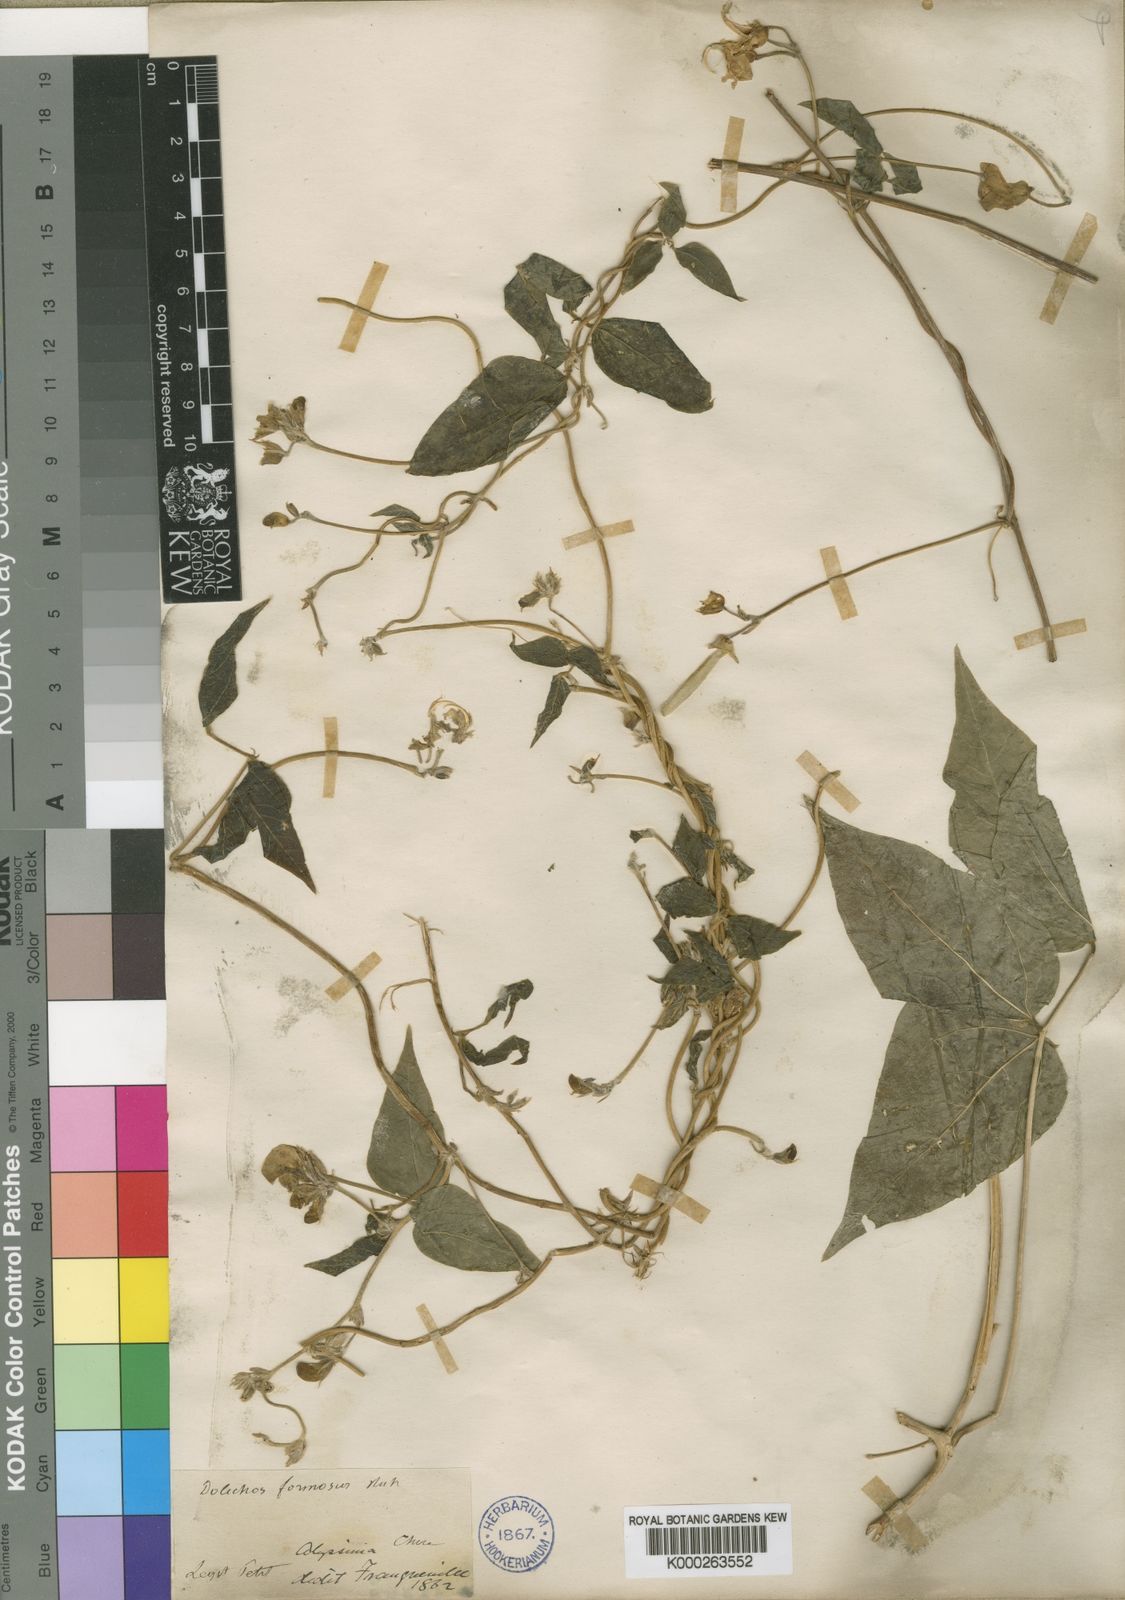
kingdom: Plantae
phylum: Tracheophyta
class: Magnoliopsida
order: Fabales
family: Fabaceae
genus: Dolichos
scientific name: Dolichos sericeus
